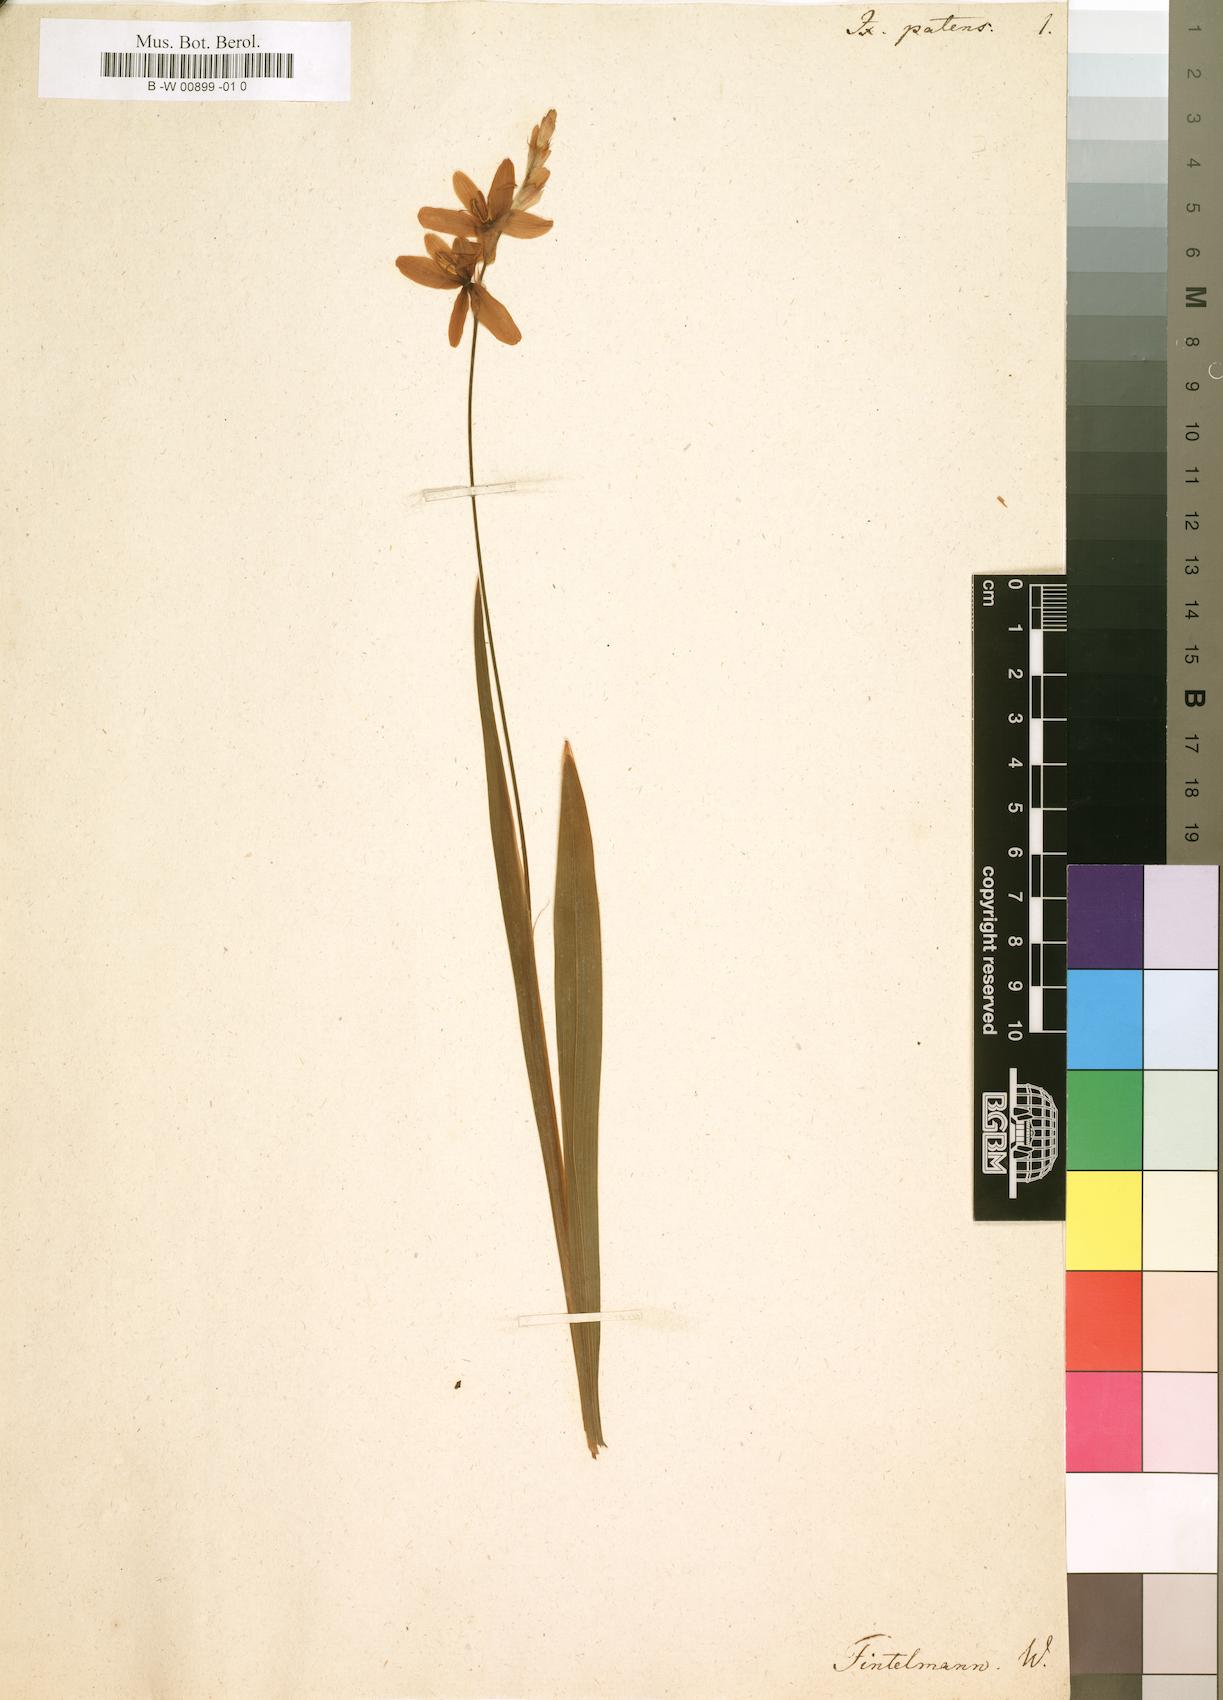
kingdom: Plantae
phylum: Tracheophyta
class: Liliopsida
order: Asparagales
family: Iridaceae
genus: Ixia
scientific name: Ixia patens
